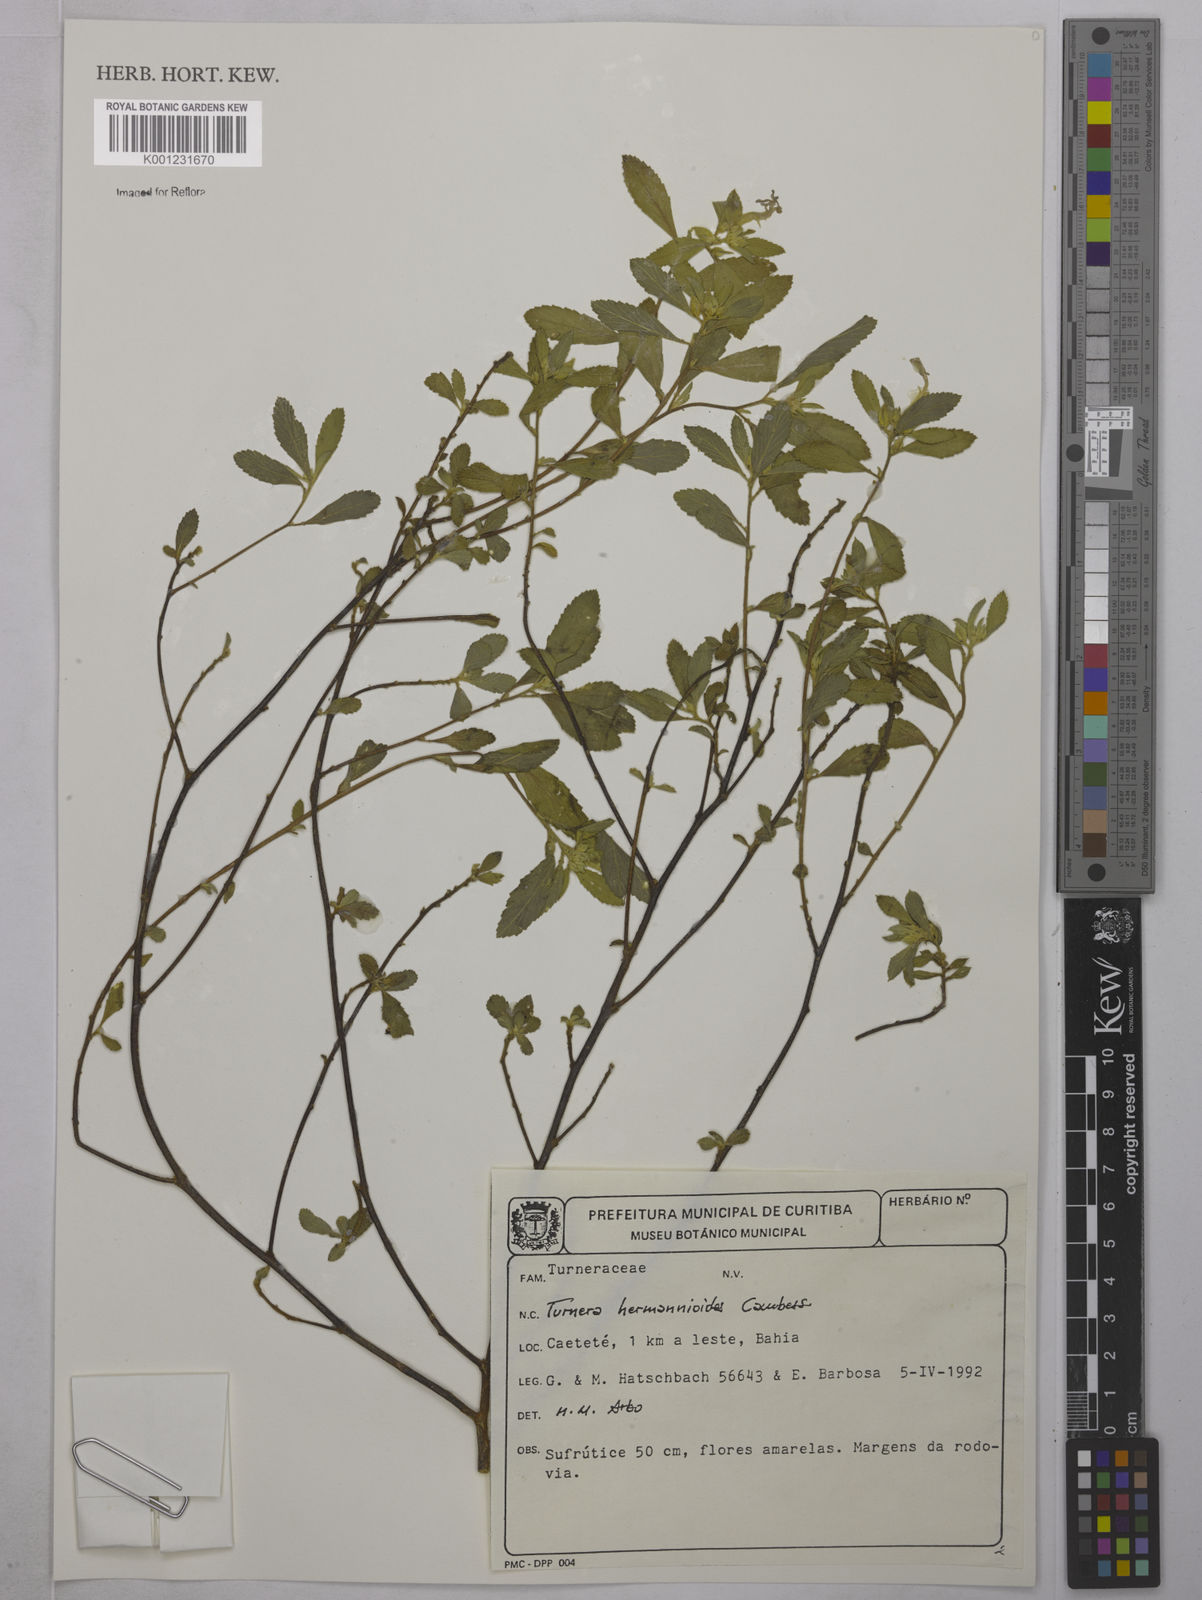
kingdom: Plantae
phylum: Tracheophyta
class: Magnoliopsida
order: Malpighiales
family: Turneraceae
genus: Turnera
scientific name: Turnera hermannioides
